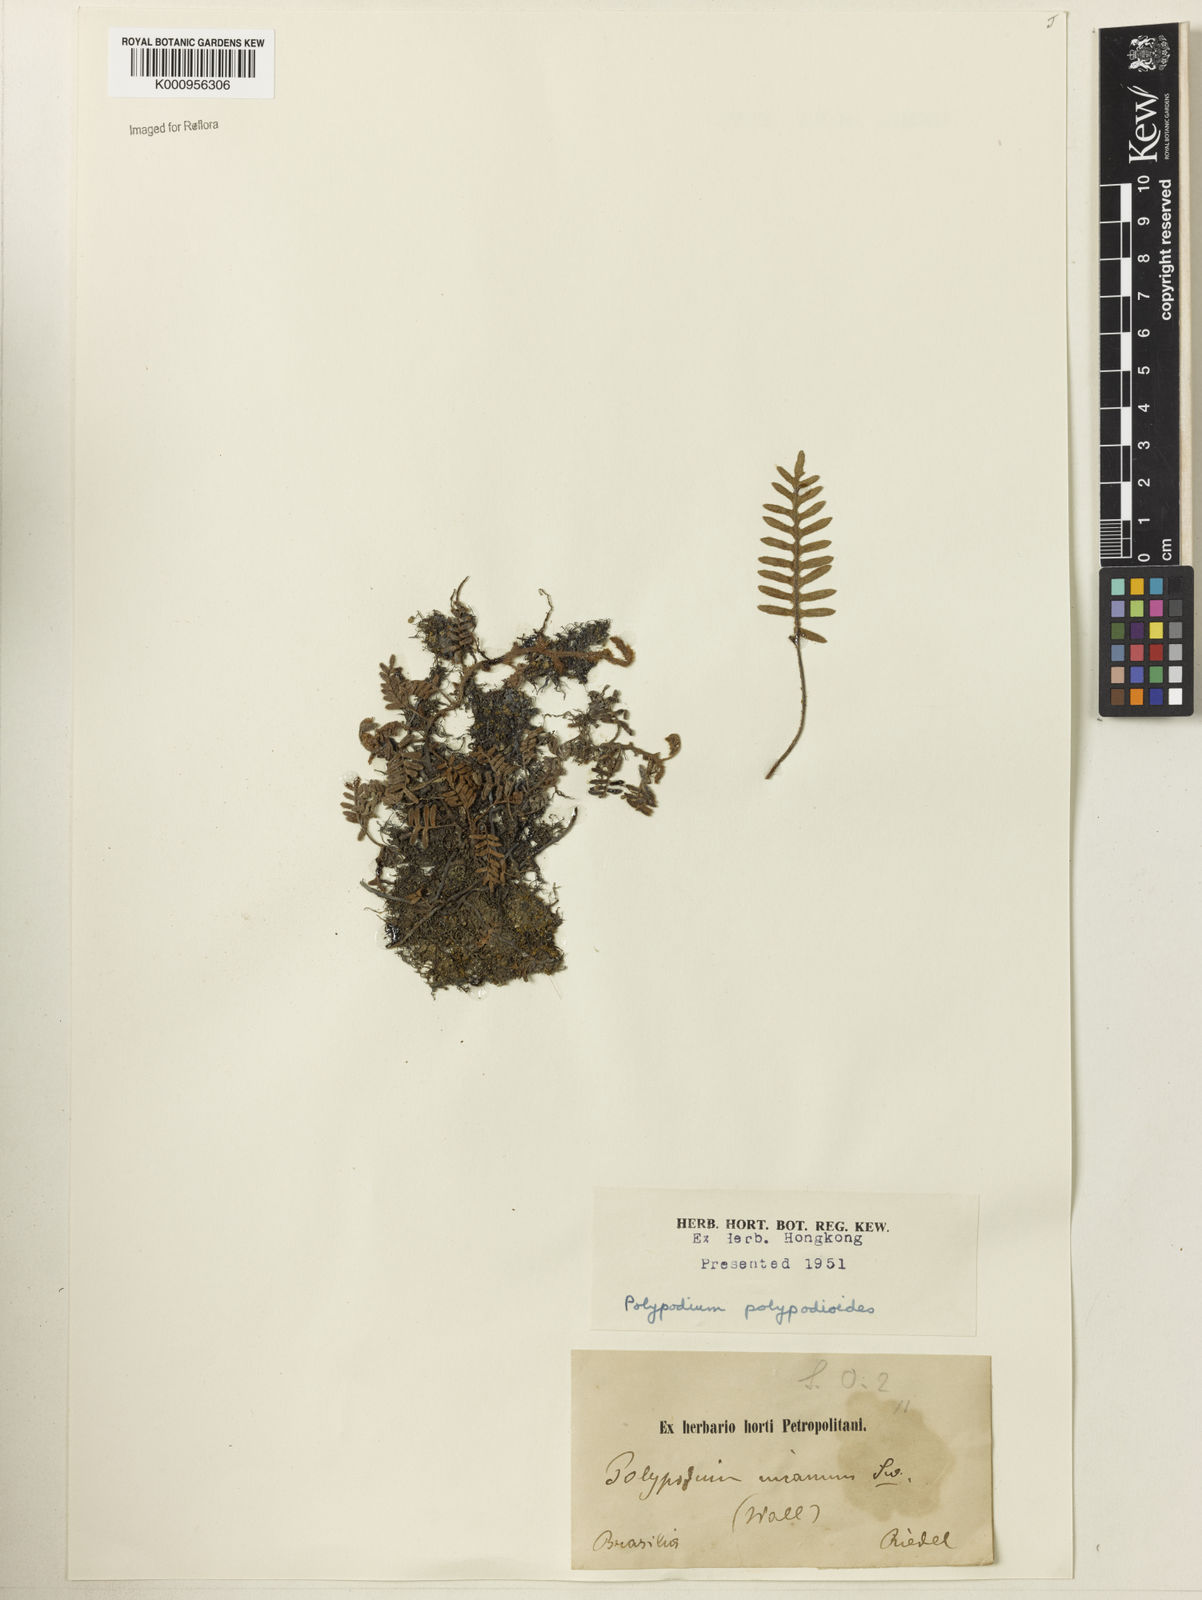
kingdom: Plantae
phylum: Tracheophyta
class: Polypodiopsida
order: Polypodiales
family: Polypodiaceae
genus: Pleopeltis
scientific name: Pleopeltis polypodioides
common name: Resurrection fern
